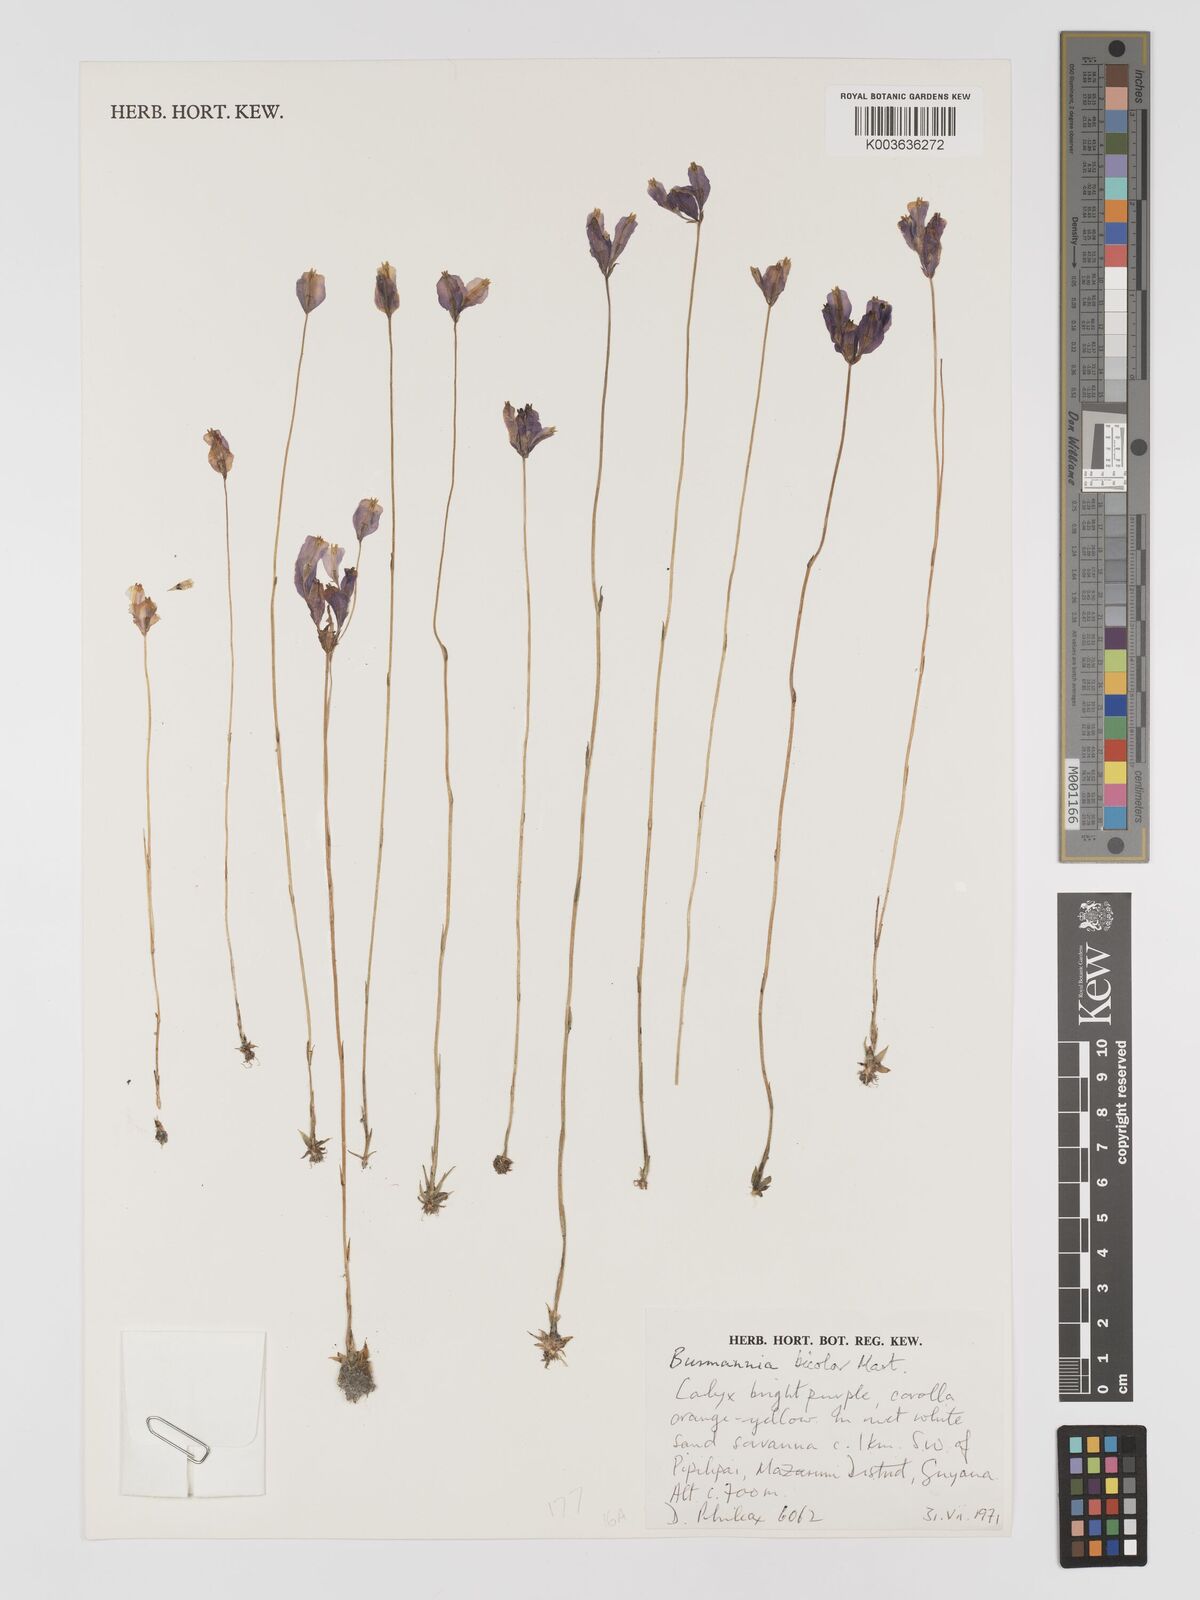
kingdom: Plantae
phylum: Tracheophyta
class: Liliopsida
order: Dioscoreales
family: Burmanniaceae
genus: Burmannia
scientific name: Burmannia bicolor
